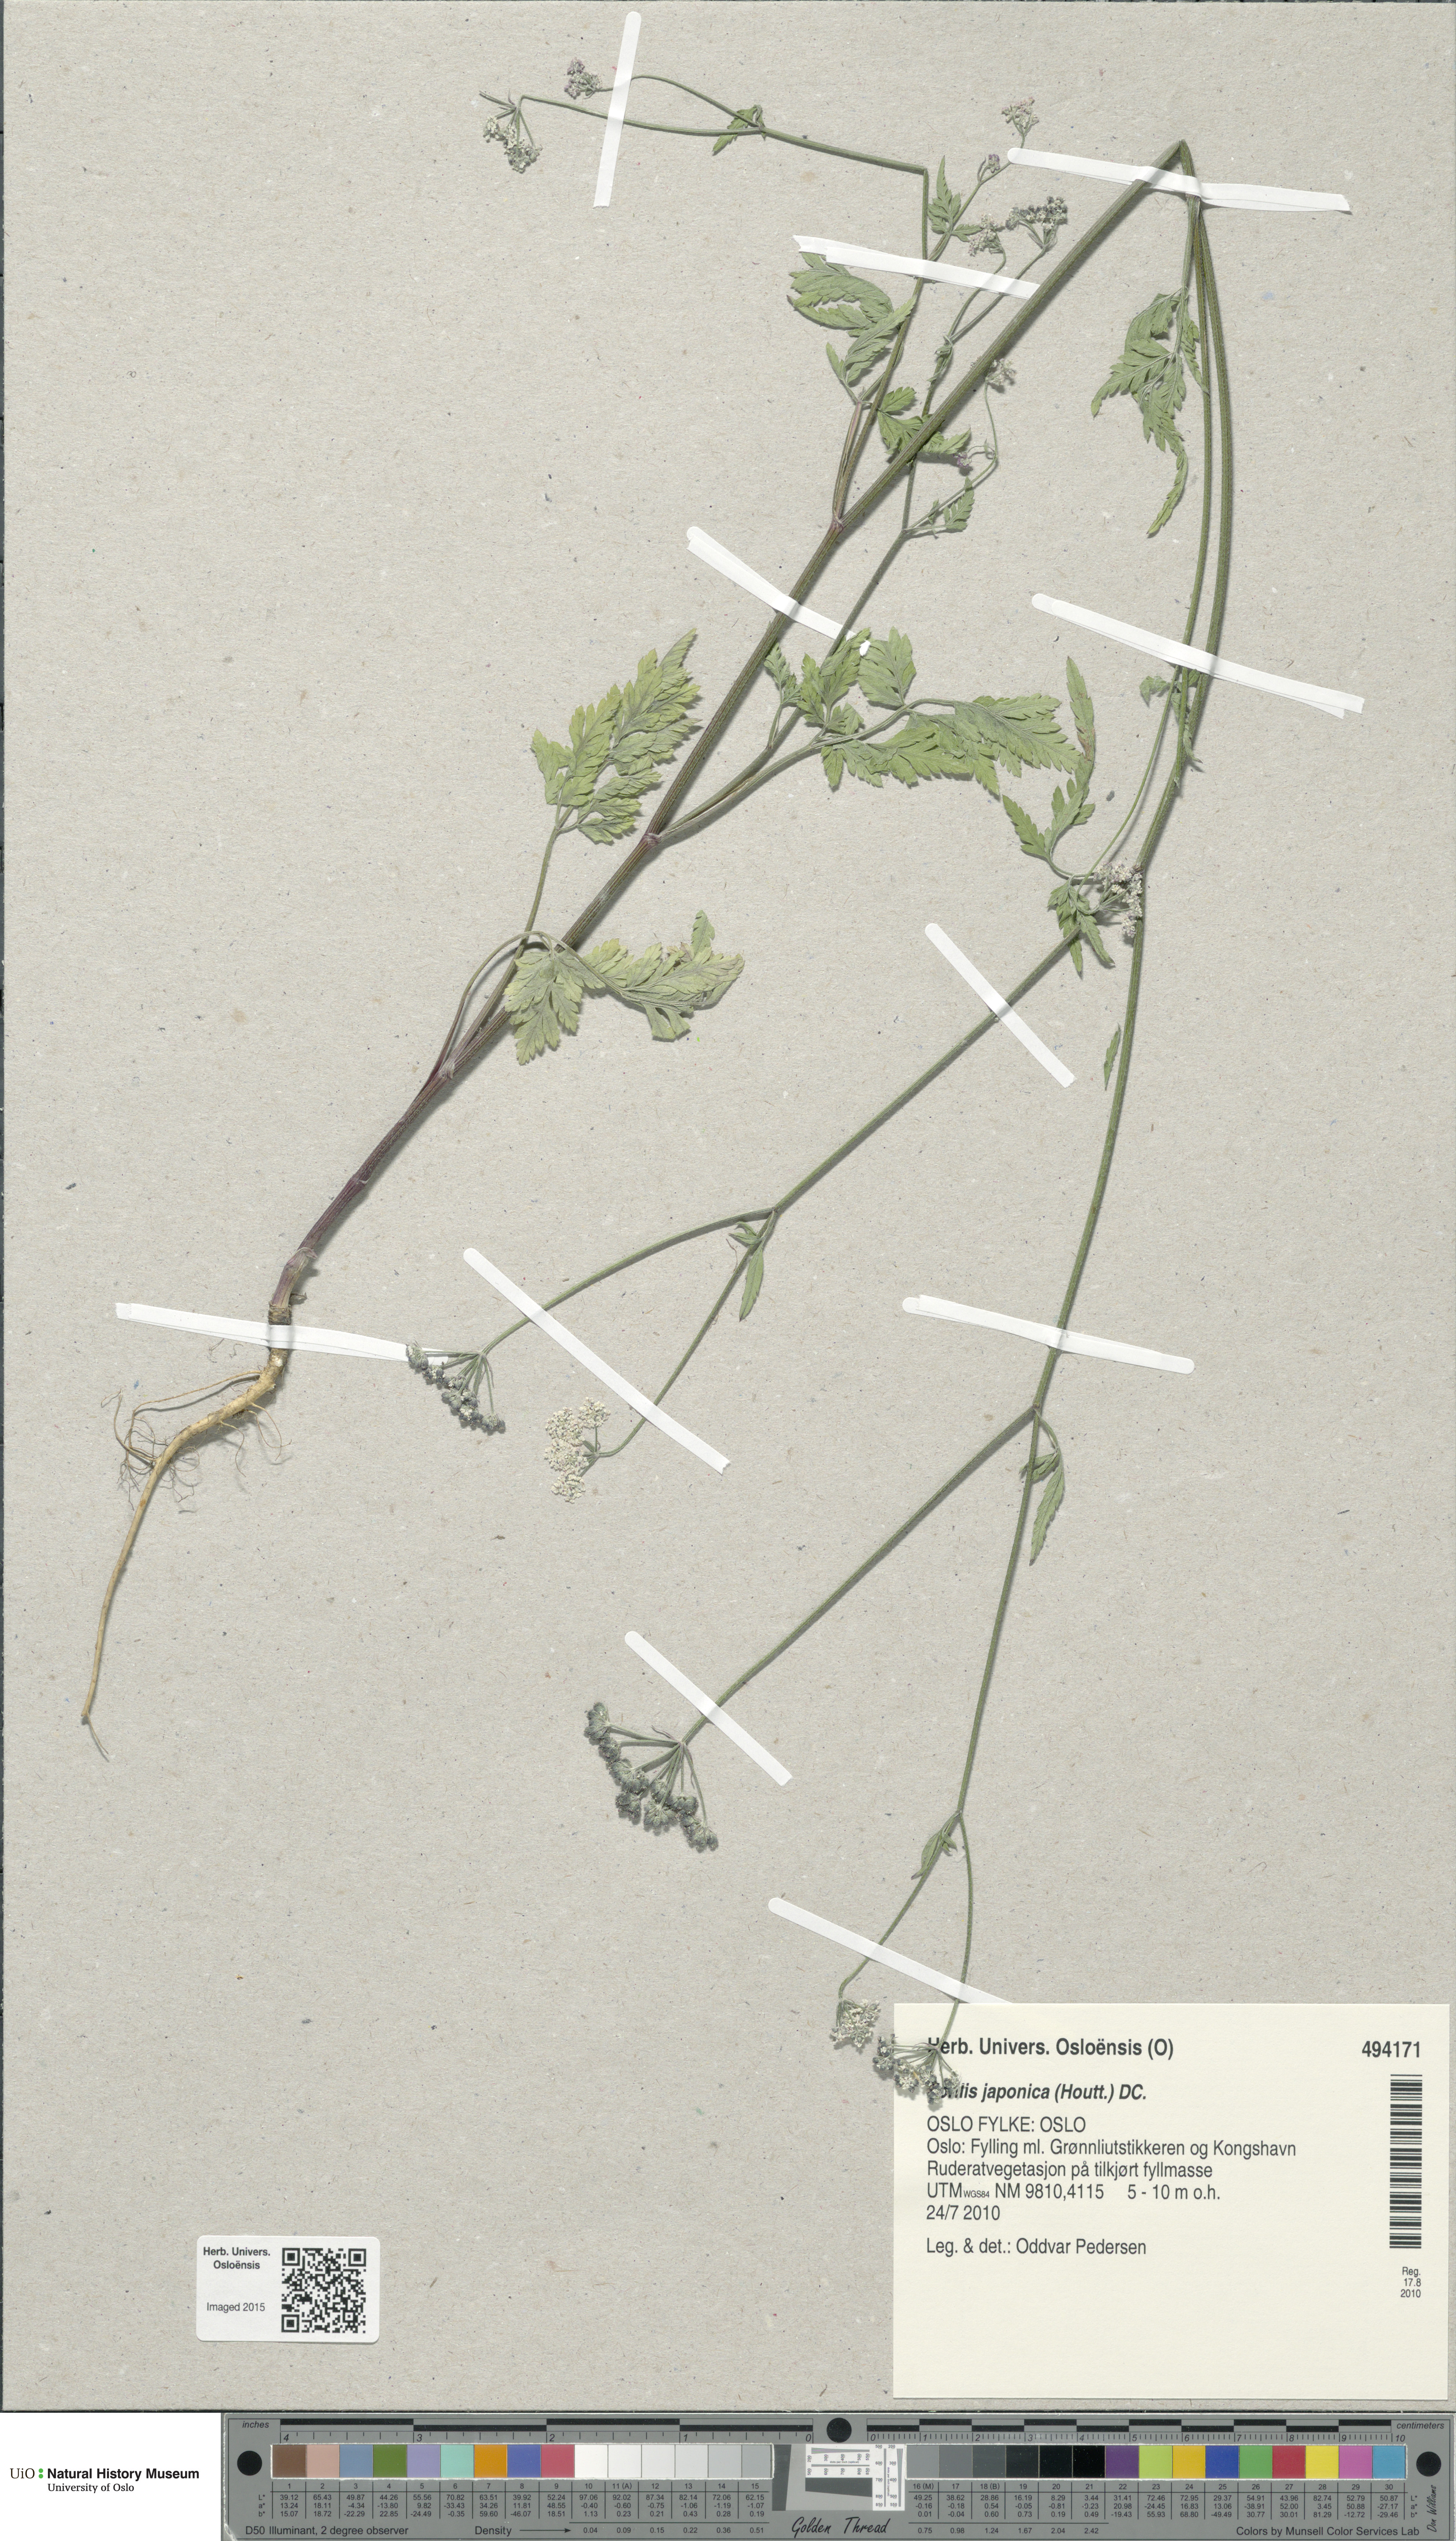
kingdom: Plantae
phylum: Tracheophyta
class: Magnoliopsida
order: Apiales
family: Apiaceae
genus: Torilis
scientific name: Torilis japonica
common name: Upright hedge-parsley
